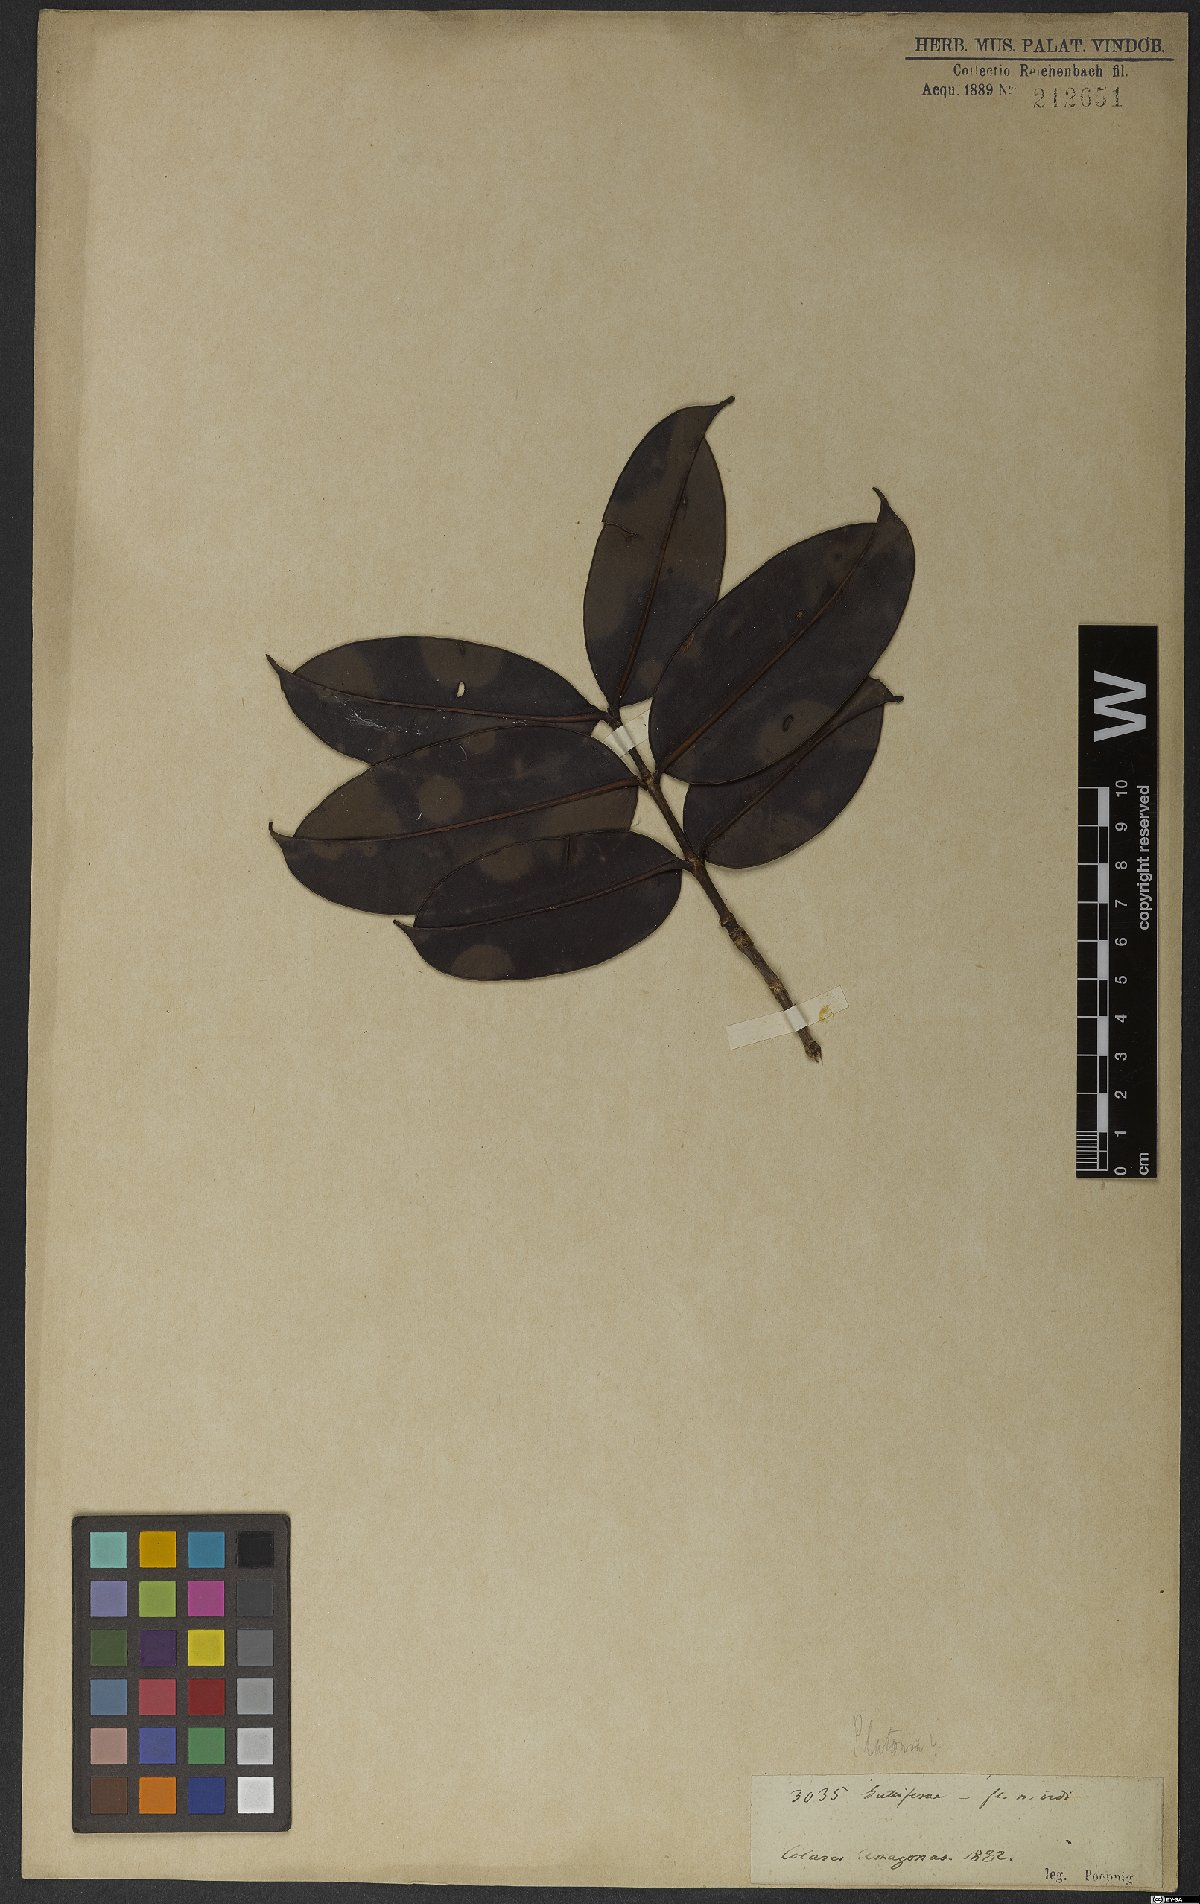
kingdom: Plantae
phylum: Tracheophyta
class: Magnoliopsida
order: Myrtales
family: Melastomataceae
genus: Mouriri
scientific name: Mouriri
